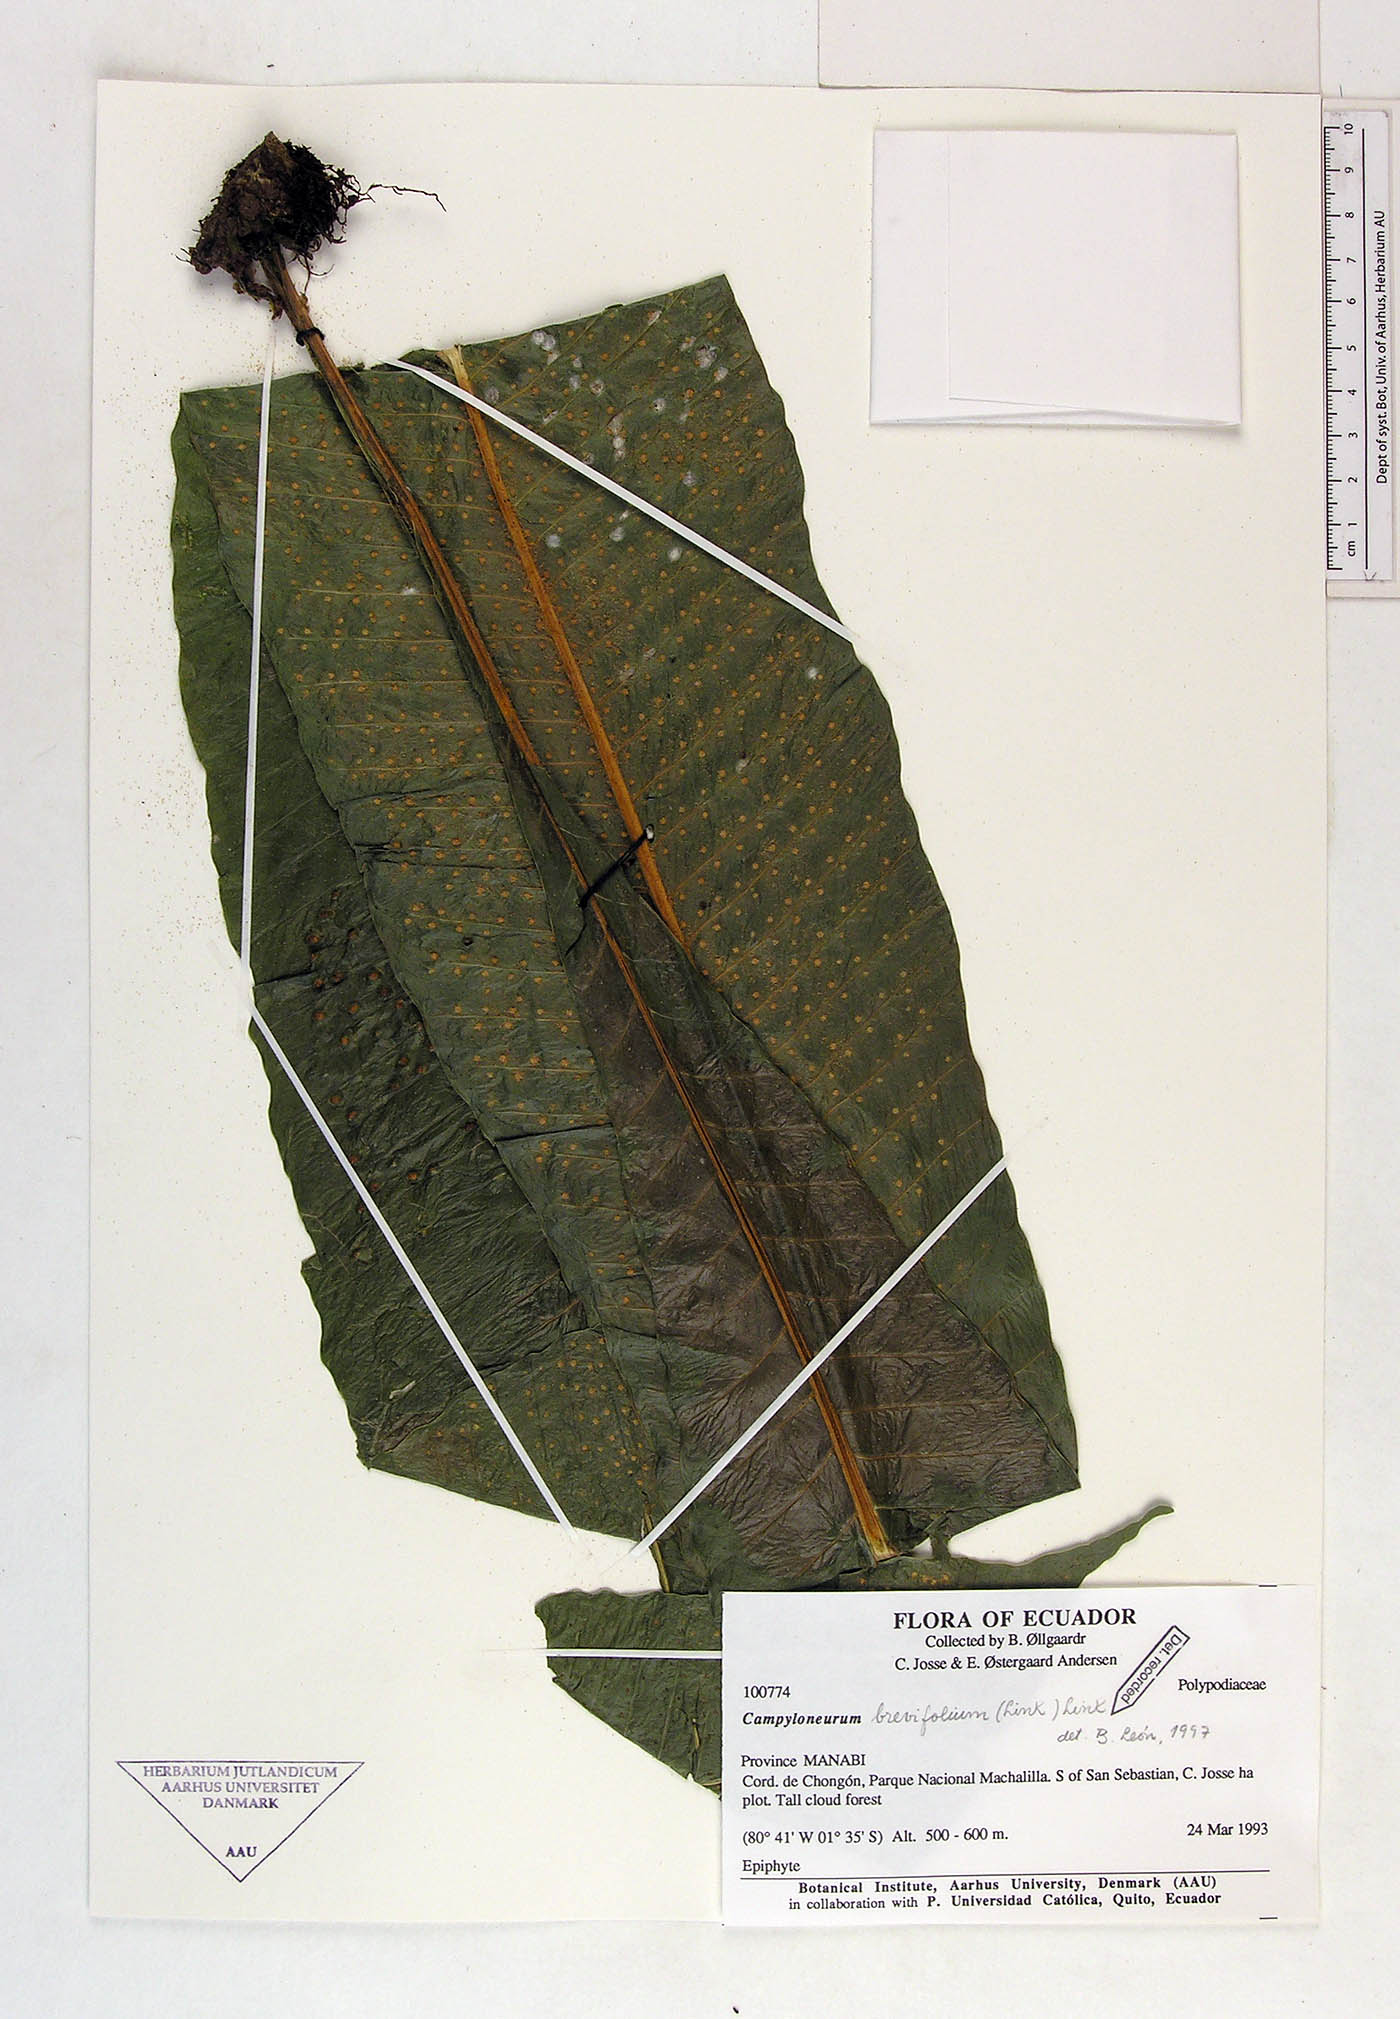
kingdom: Plantae
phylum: Tracheophyta
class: Polypodiopsida
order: Polypodiales
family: Polypodiaceae
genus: Campyloneurum
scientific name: Campyloneurum brevifolium
